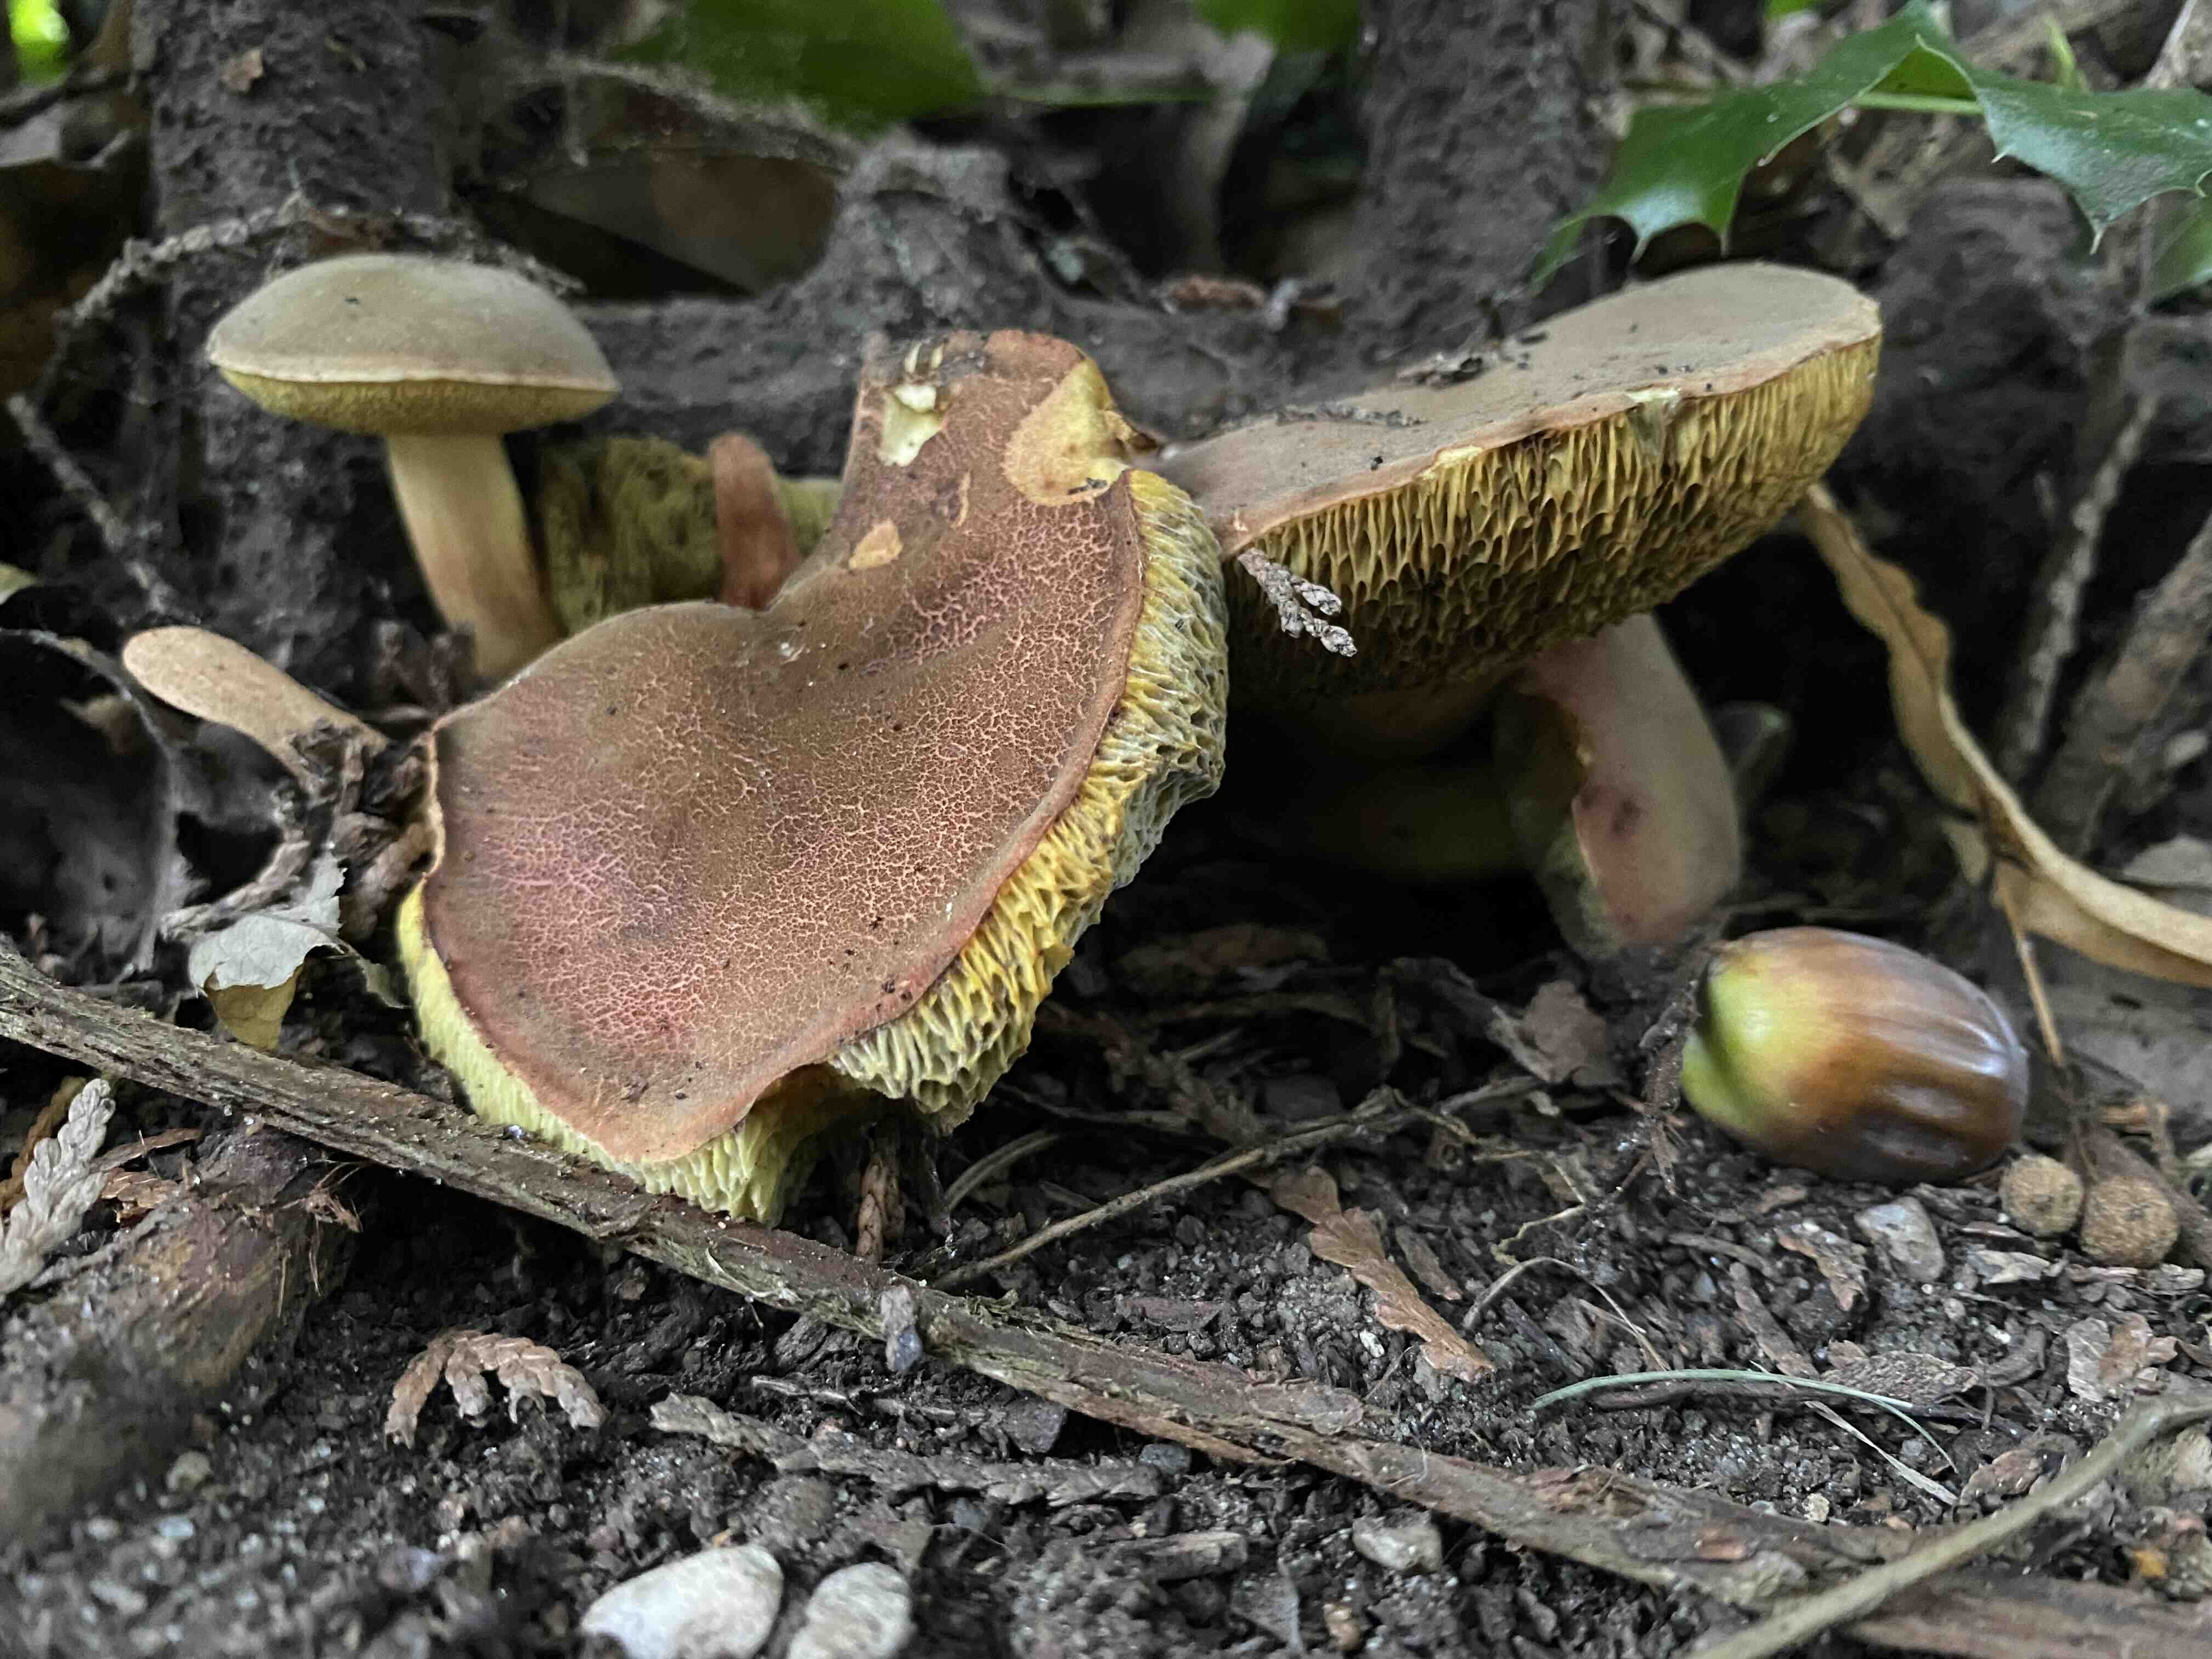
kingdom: Fungi
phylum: Basidiomycota
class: Agaricomycetes
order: Boletales
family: Boletaceae
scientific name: Boletaceae
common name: rørhatfamilien
